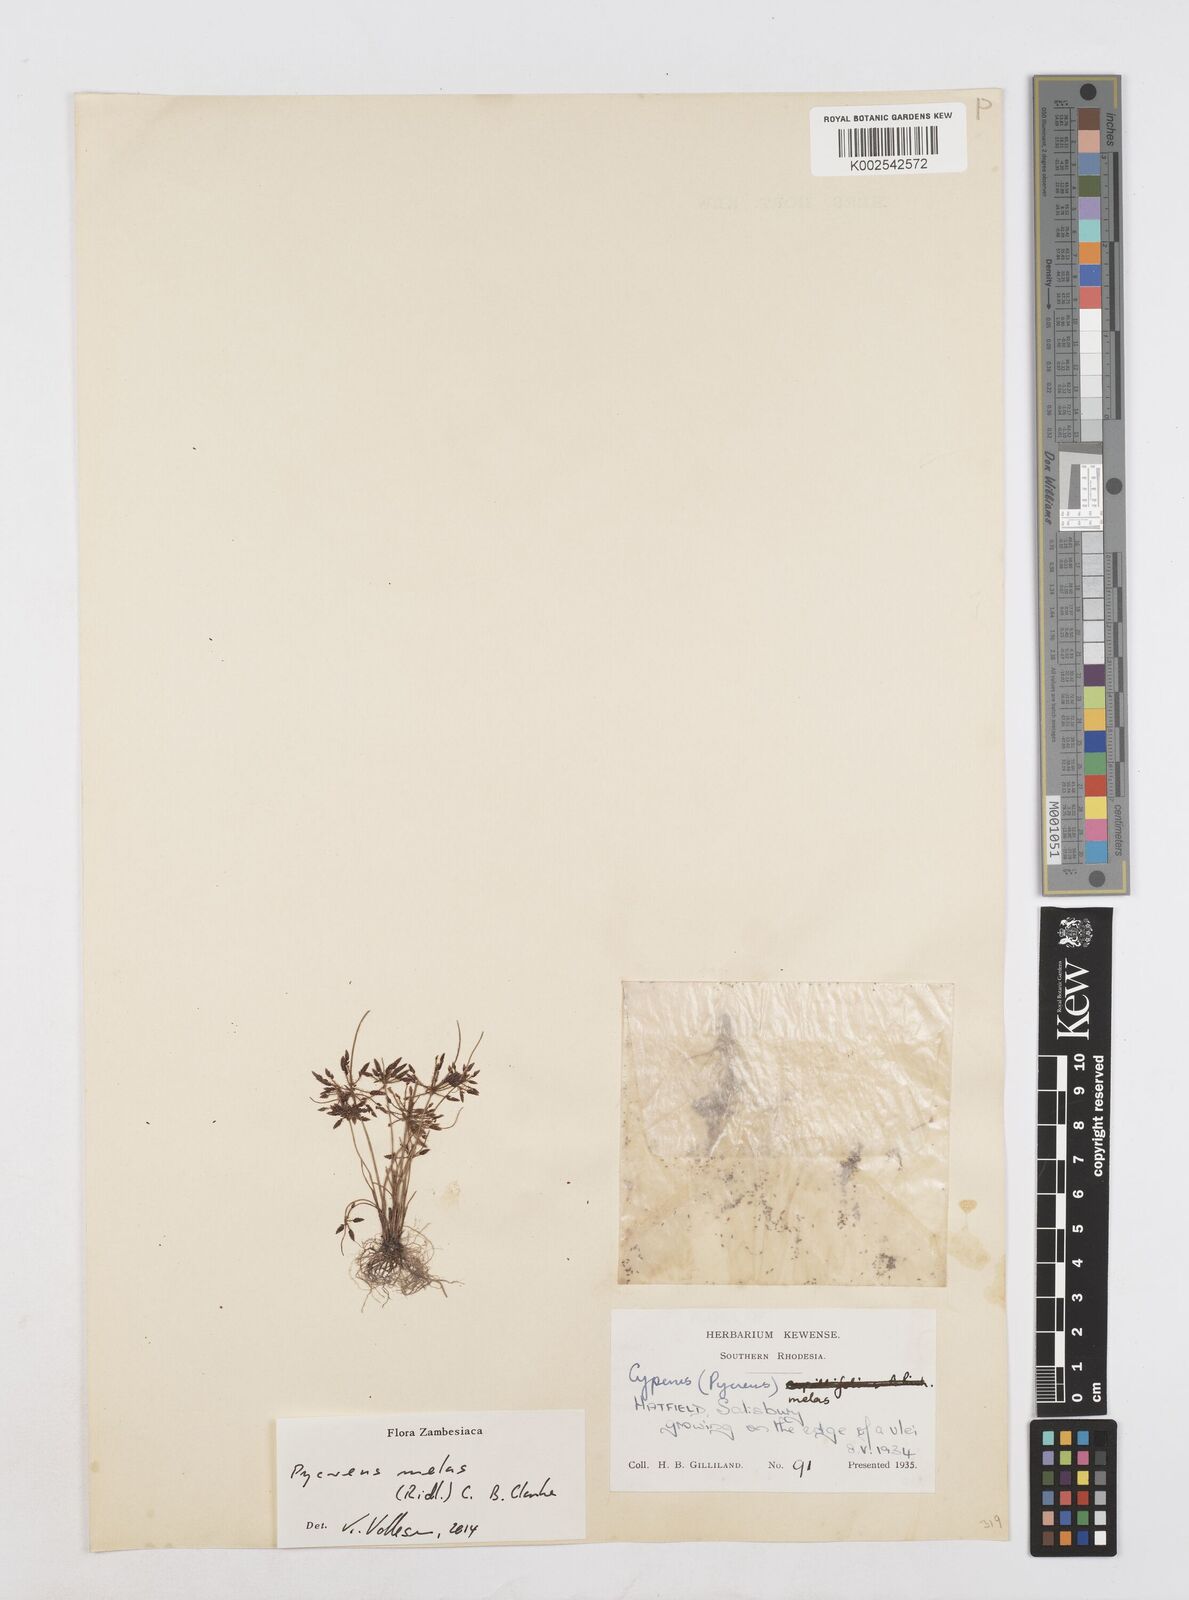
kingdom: Plantae
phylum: Tracheophyta
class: Liliopsida
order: Poales
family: Cyperaceae
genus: Cyperus
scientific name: Cyperus melas
